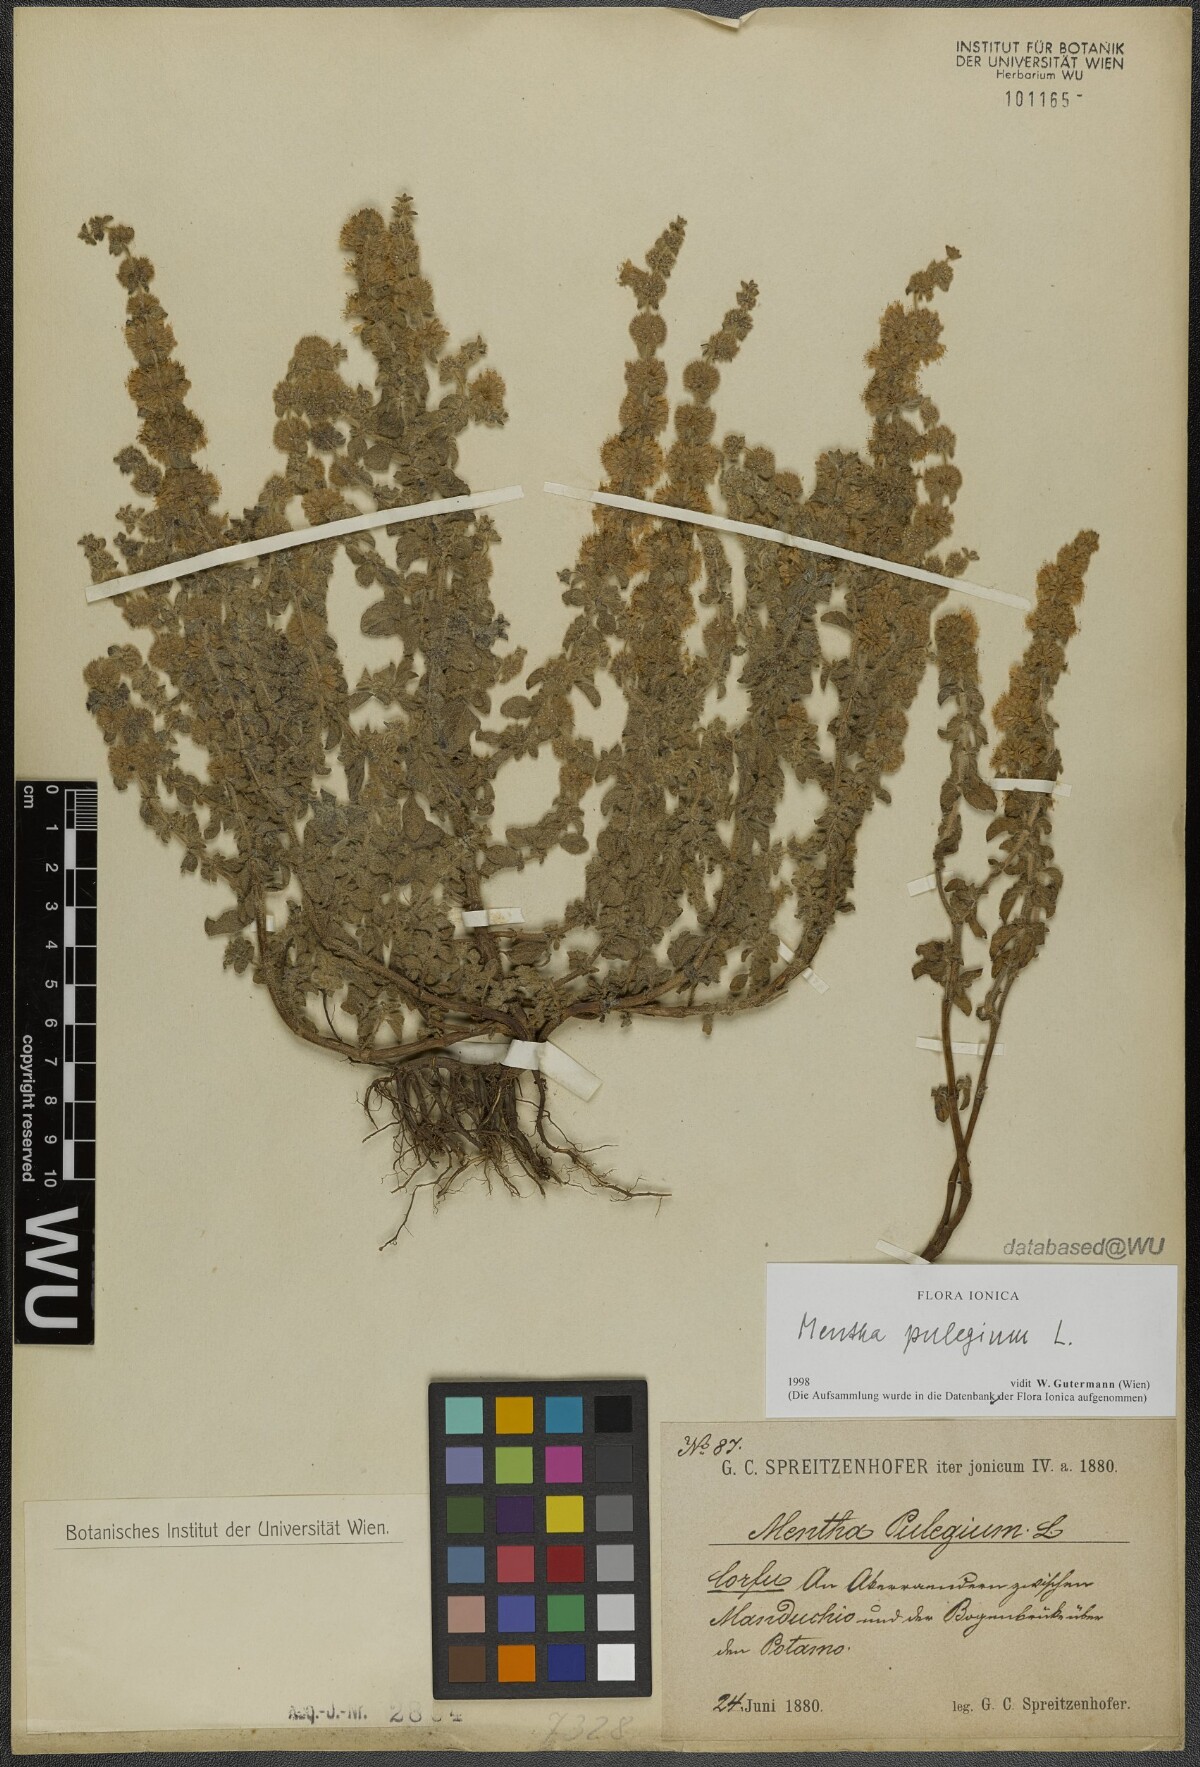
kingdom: Plantae
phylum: Tracheophyta
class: Magnoliopsida
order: Lamiales
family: Lamiaceae
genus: Mentha
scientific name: Mentha pulegium
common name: Pennyroyal
